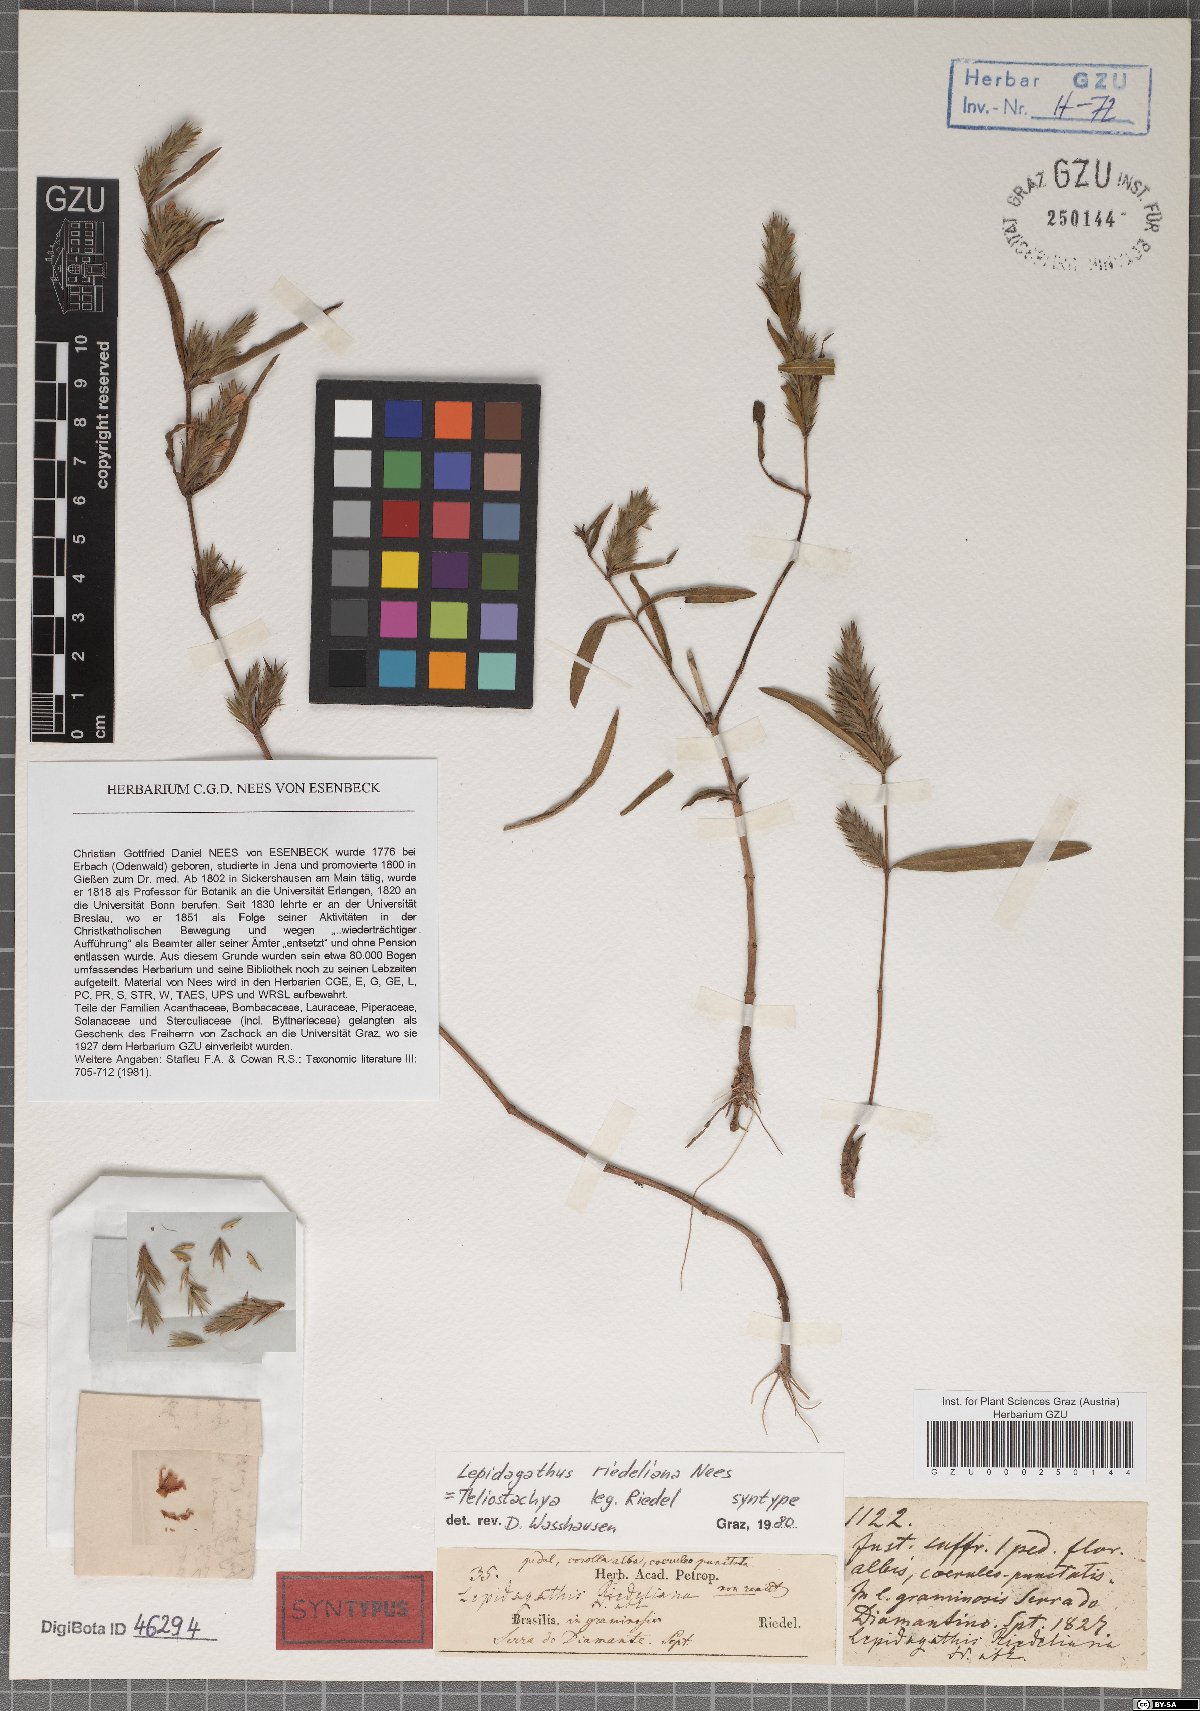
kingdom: Plantae
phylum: Tracheophyta
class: Magnoliopsida
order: Lamiales
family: Acanthaceae
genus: Lepidagathis
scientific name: Lepidagathis riedeliana
